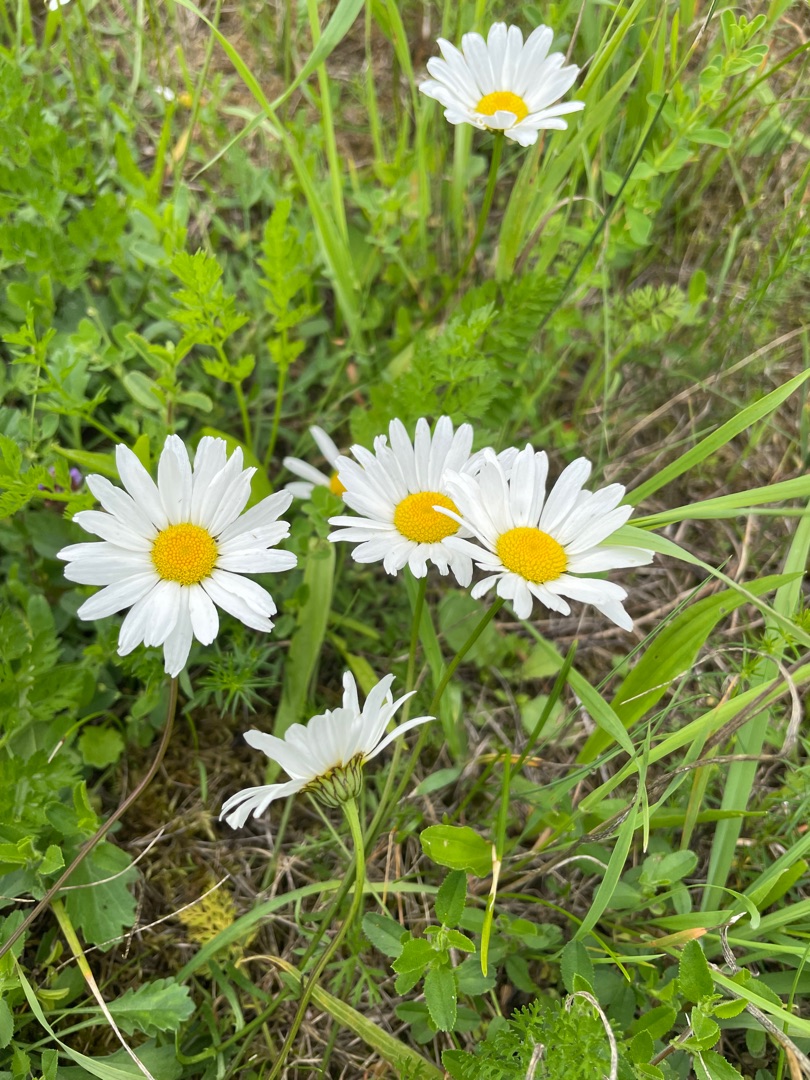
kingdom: Plantae
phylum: Tracheophyta
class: Magnoliopsida
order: Asterales
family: Asteraceae
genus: Leucanthemum
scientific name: Leucanthemum vulgare
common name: Hvid okseøje
